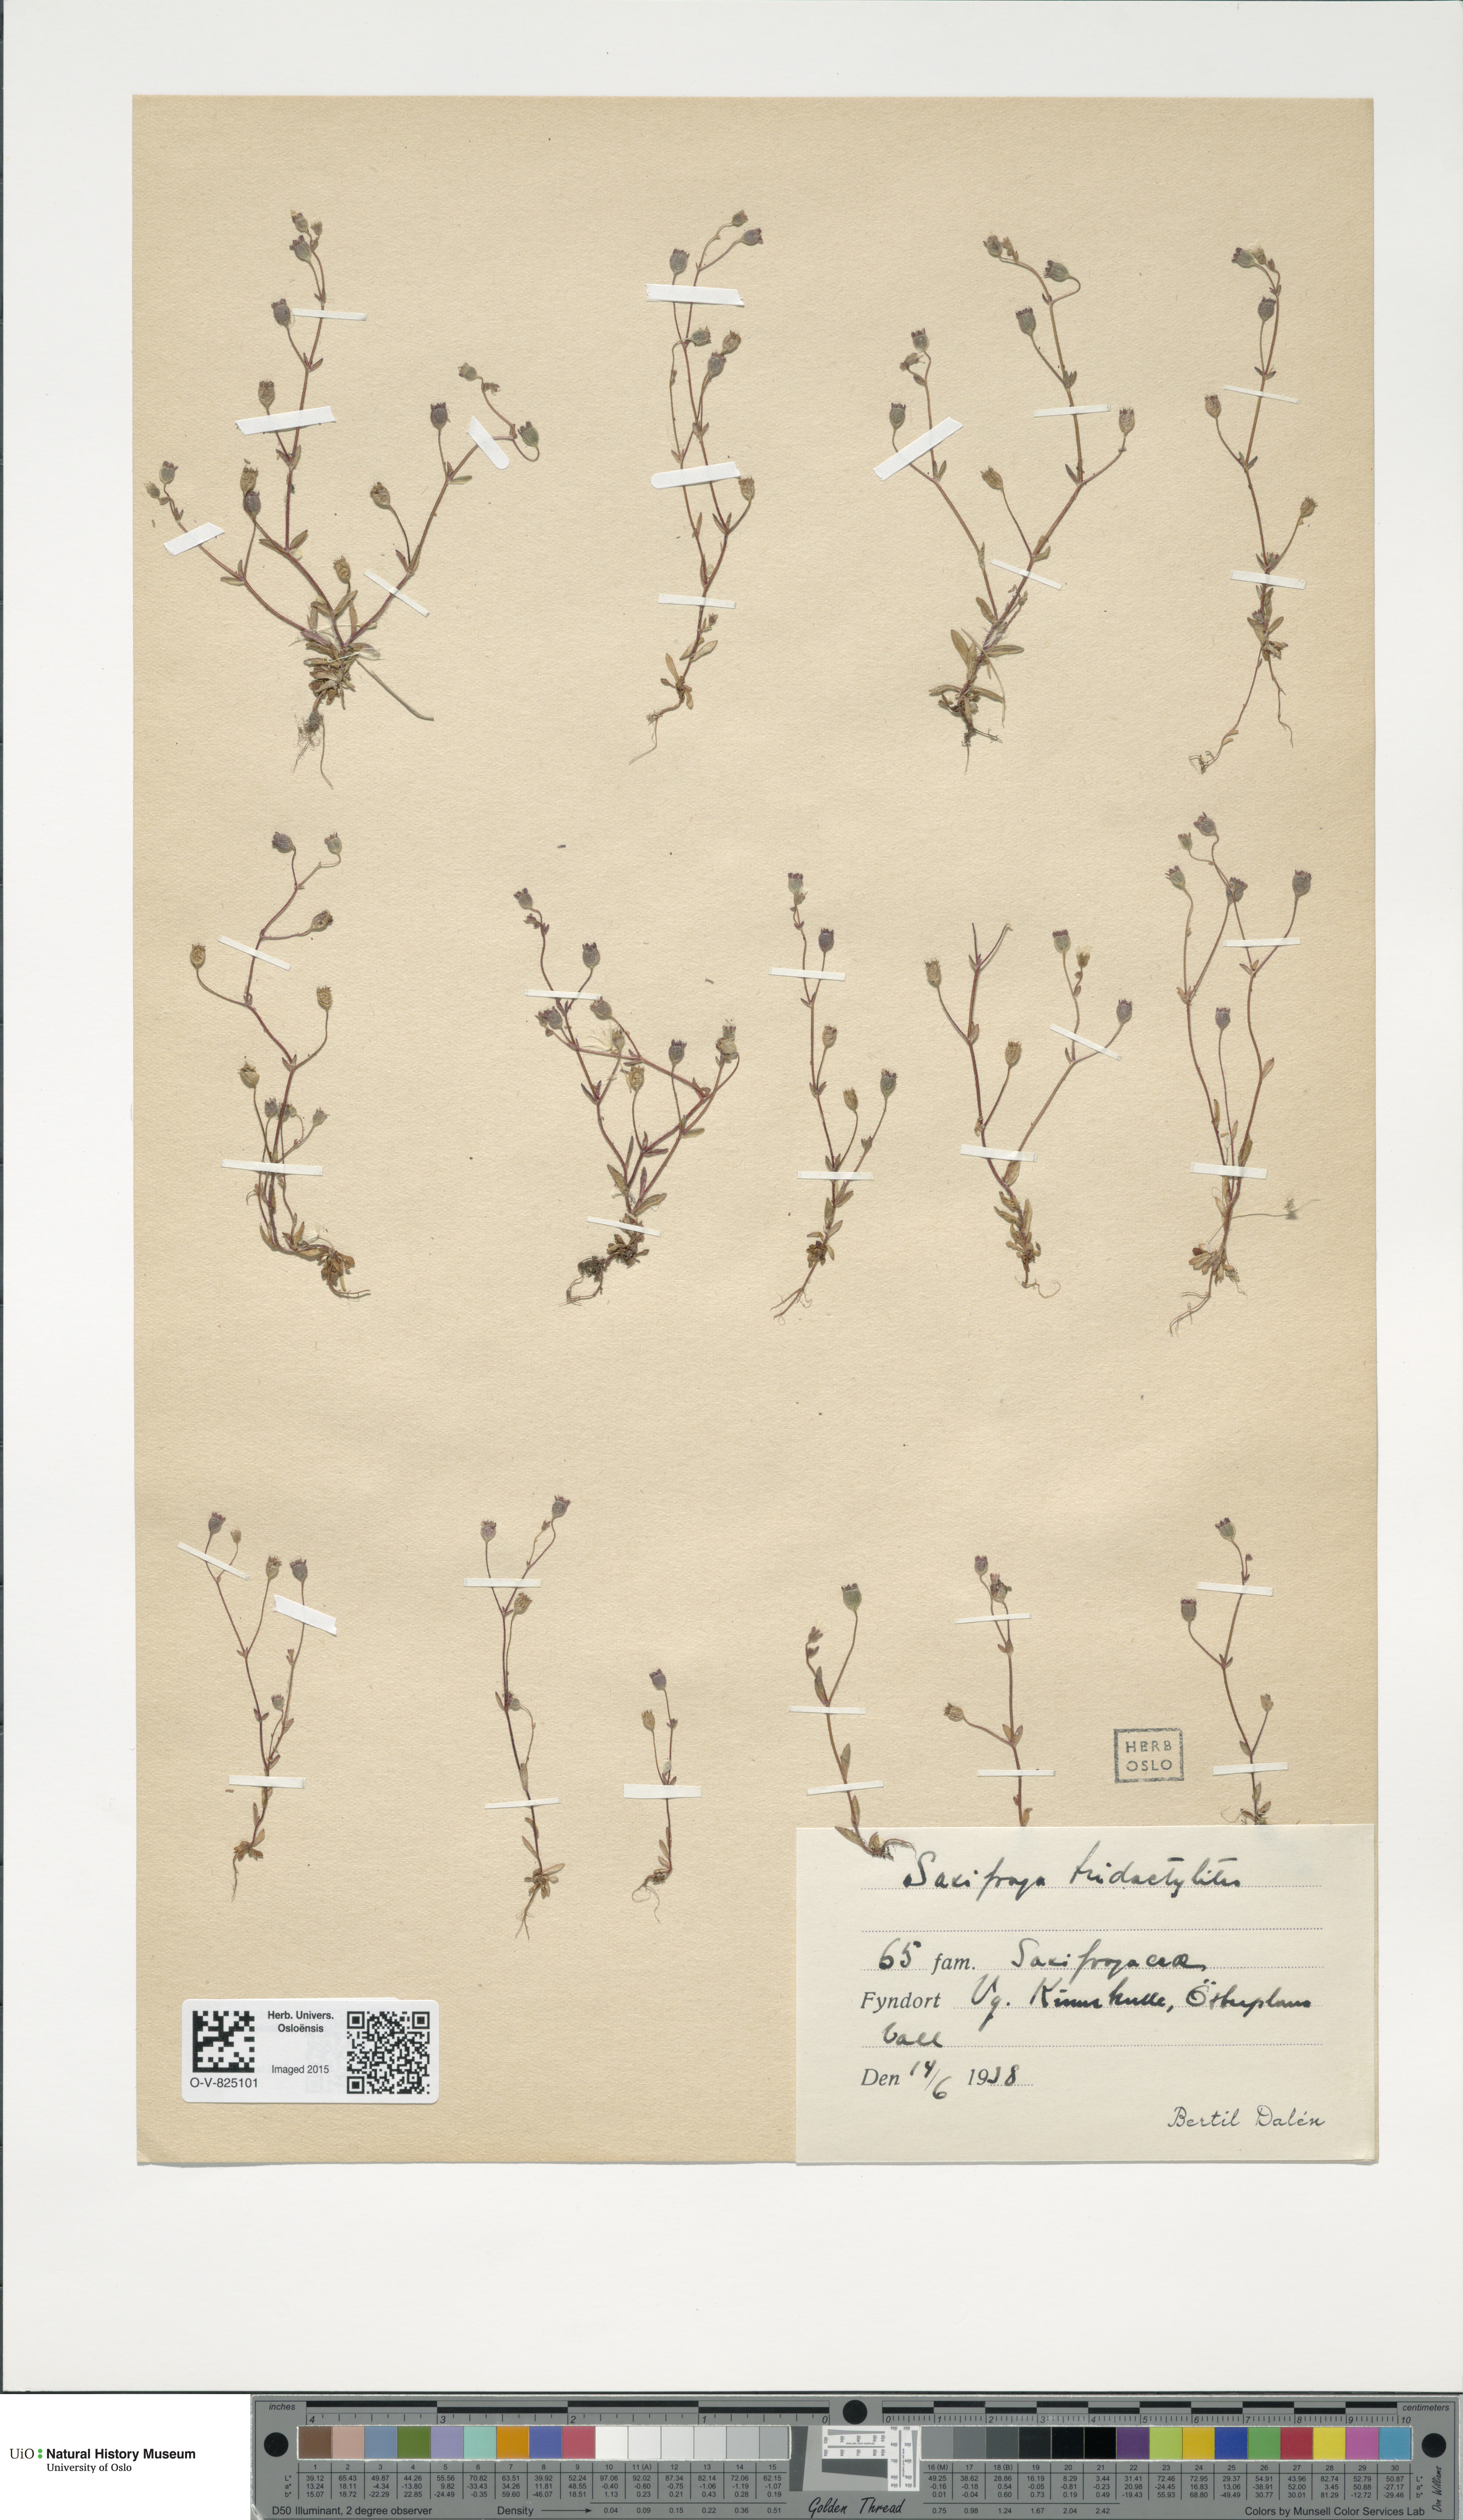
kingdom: Plantae
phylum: Tracheophyta
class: Magnoliopsida
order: Saxifragales
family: Saxifragaceae
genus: Saxifraga
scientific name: Saxifraga tridactylites
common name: Rue-leaved saxifrage
